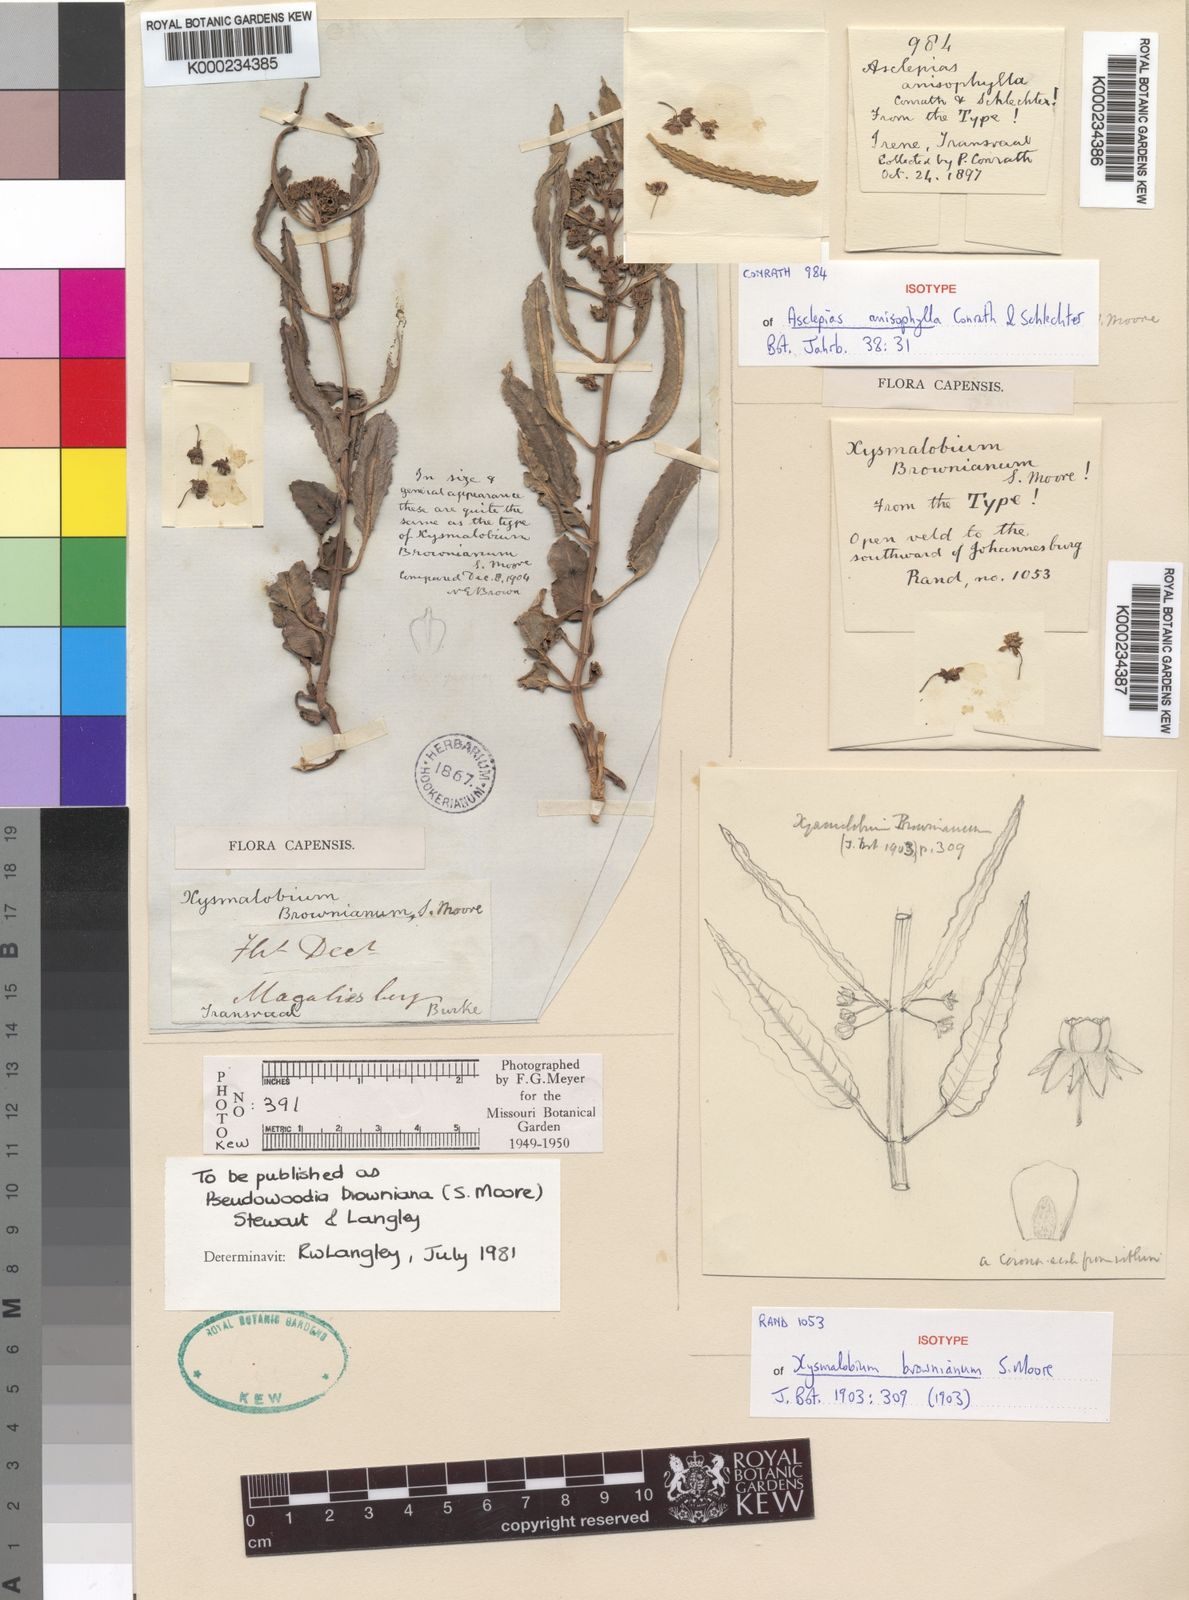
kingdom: Plantae
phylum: Tracheophyta
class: Magnoliopsida
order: Gentianales
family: Asclepiadaceae
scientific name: Asclepiadaceae
